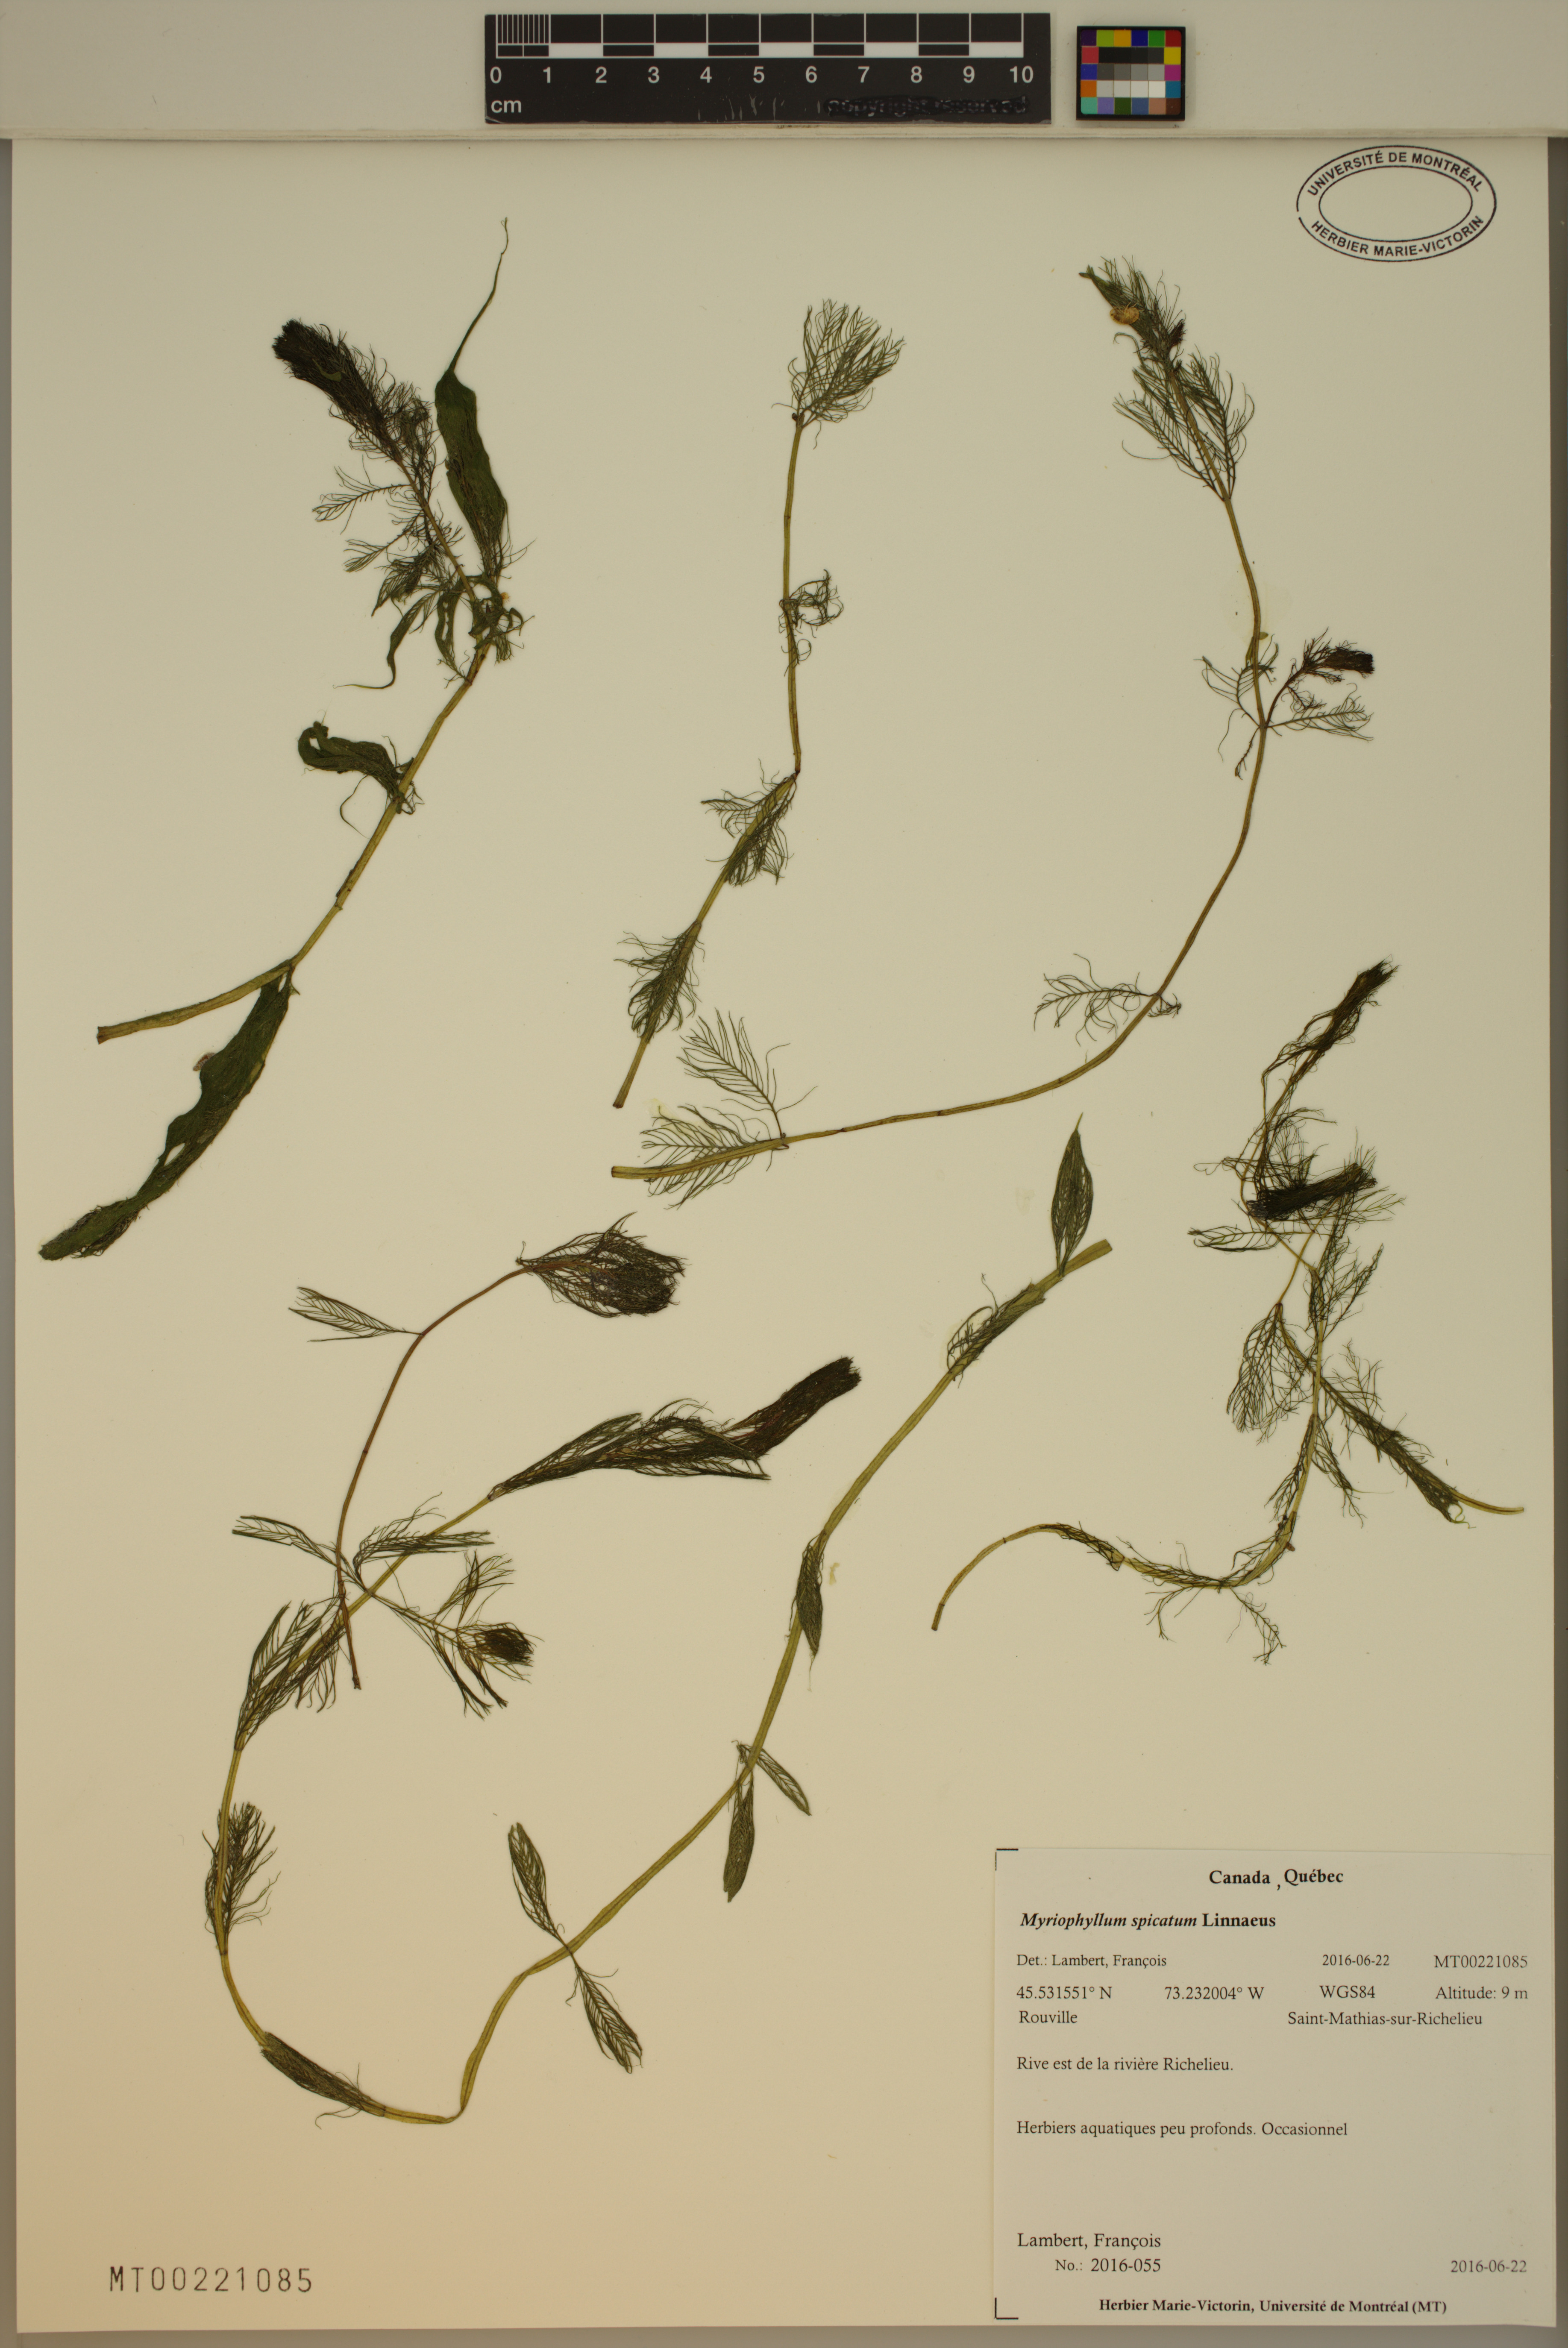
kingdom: Plantae
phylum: Tracheophyta
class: Magnoliopsida
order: Saxifragales
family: Haloragaceae
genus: Myriophyllum
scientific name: Myriophyllum spicatum
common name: Spiked water-milfoil
